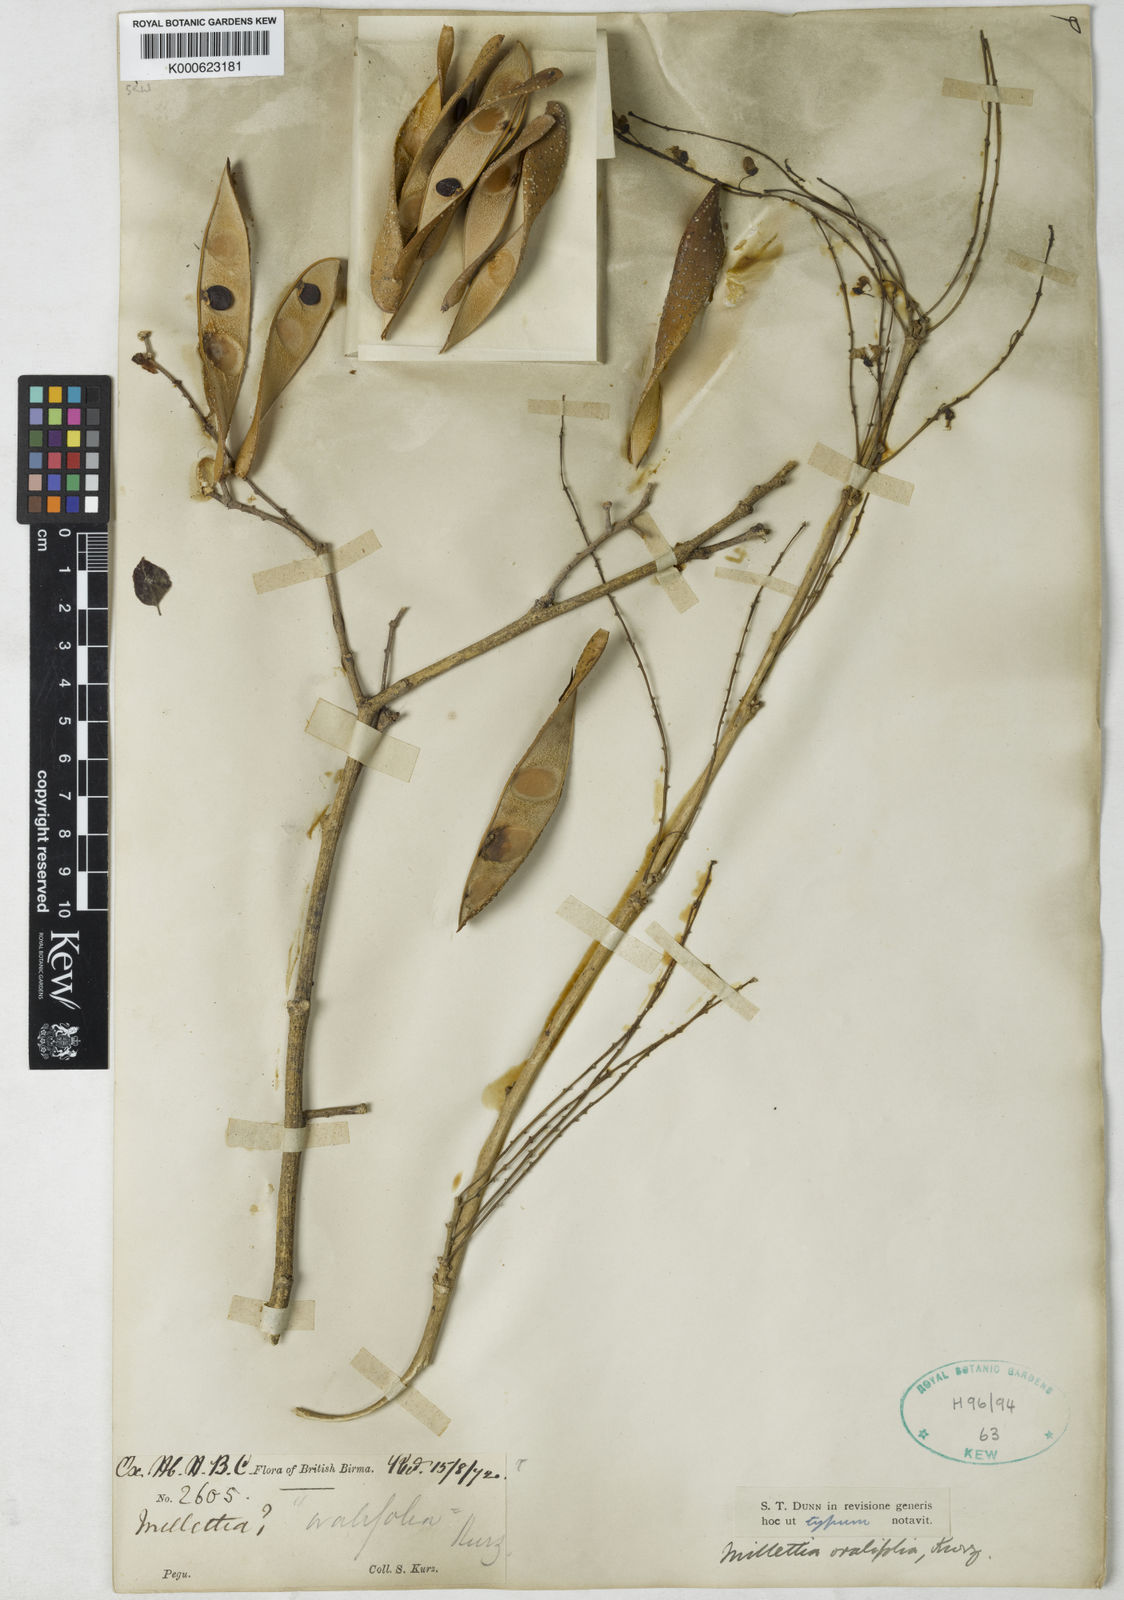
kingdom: Plantae
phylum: Tracheophyta
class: Magnoliopsida
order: Fabales
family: Fabaceae
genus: Millettia
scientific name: Millettia
